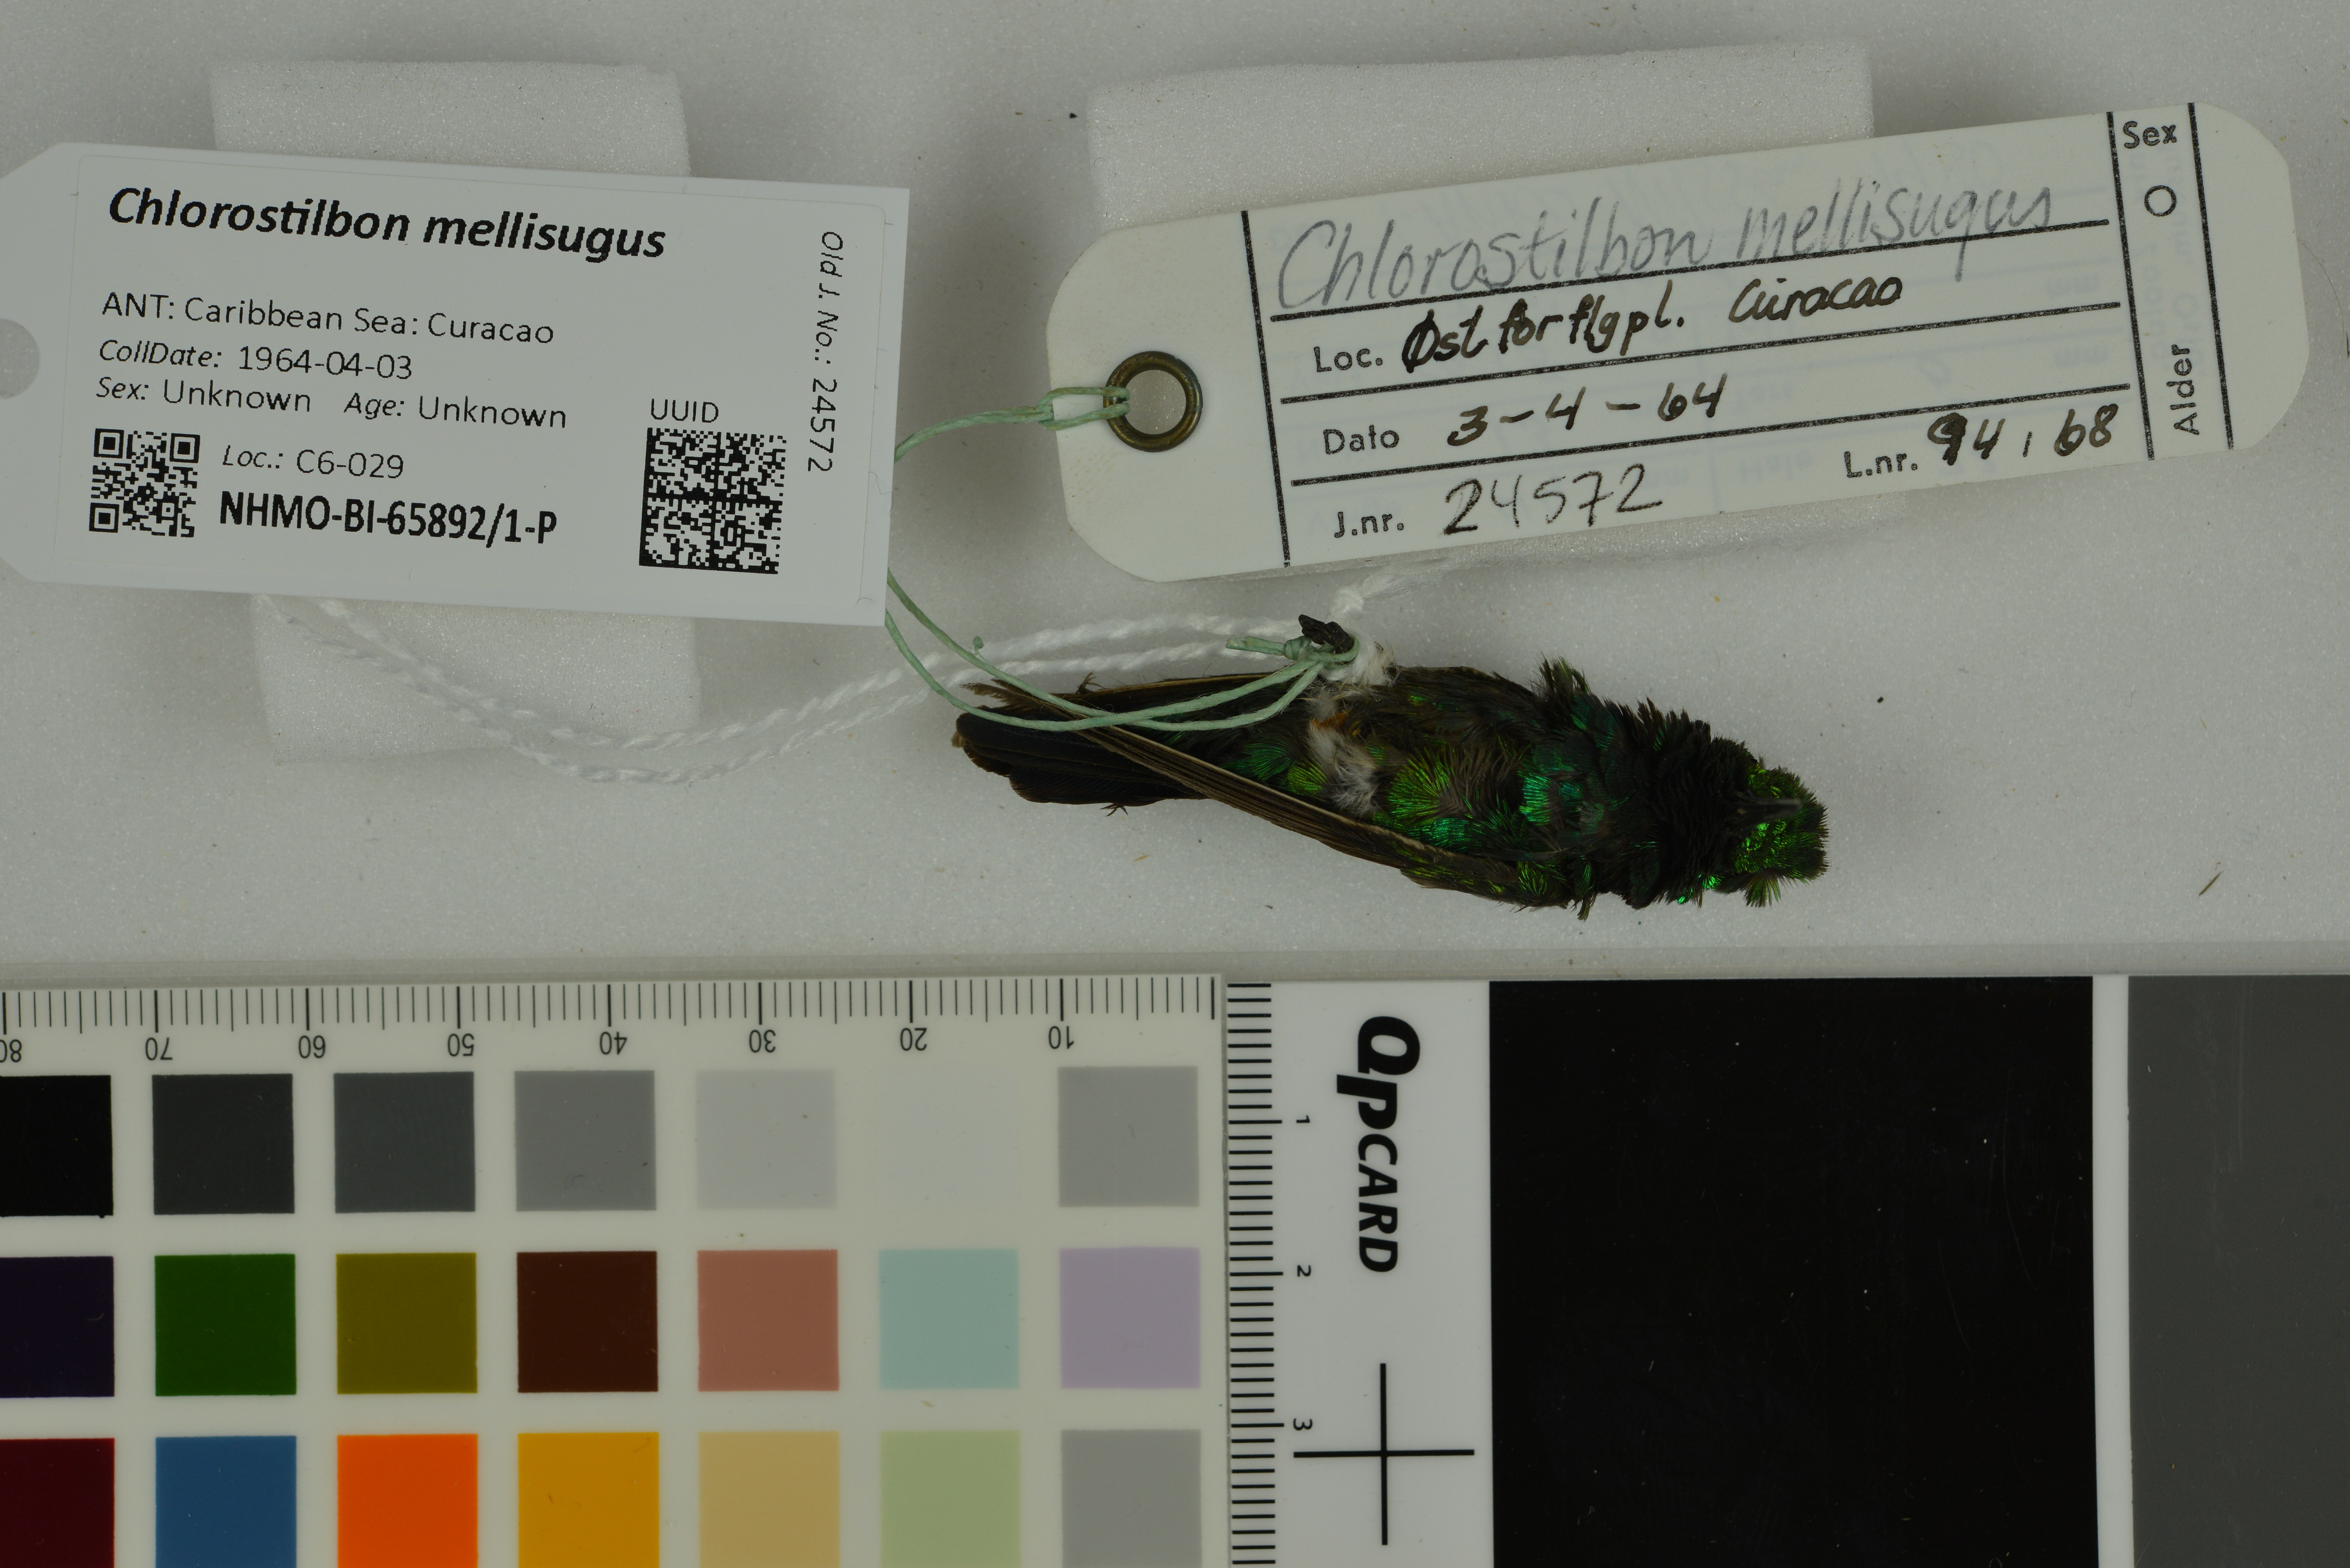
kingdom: Animalia
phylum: Chordata
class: Aves
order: Apodiformes
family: Trochilidae
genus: Chlorostilbon
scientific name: Chlorostilbon mellisugus
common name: Blue-tailed emerald
